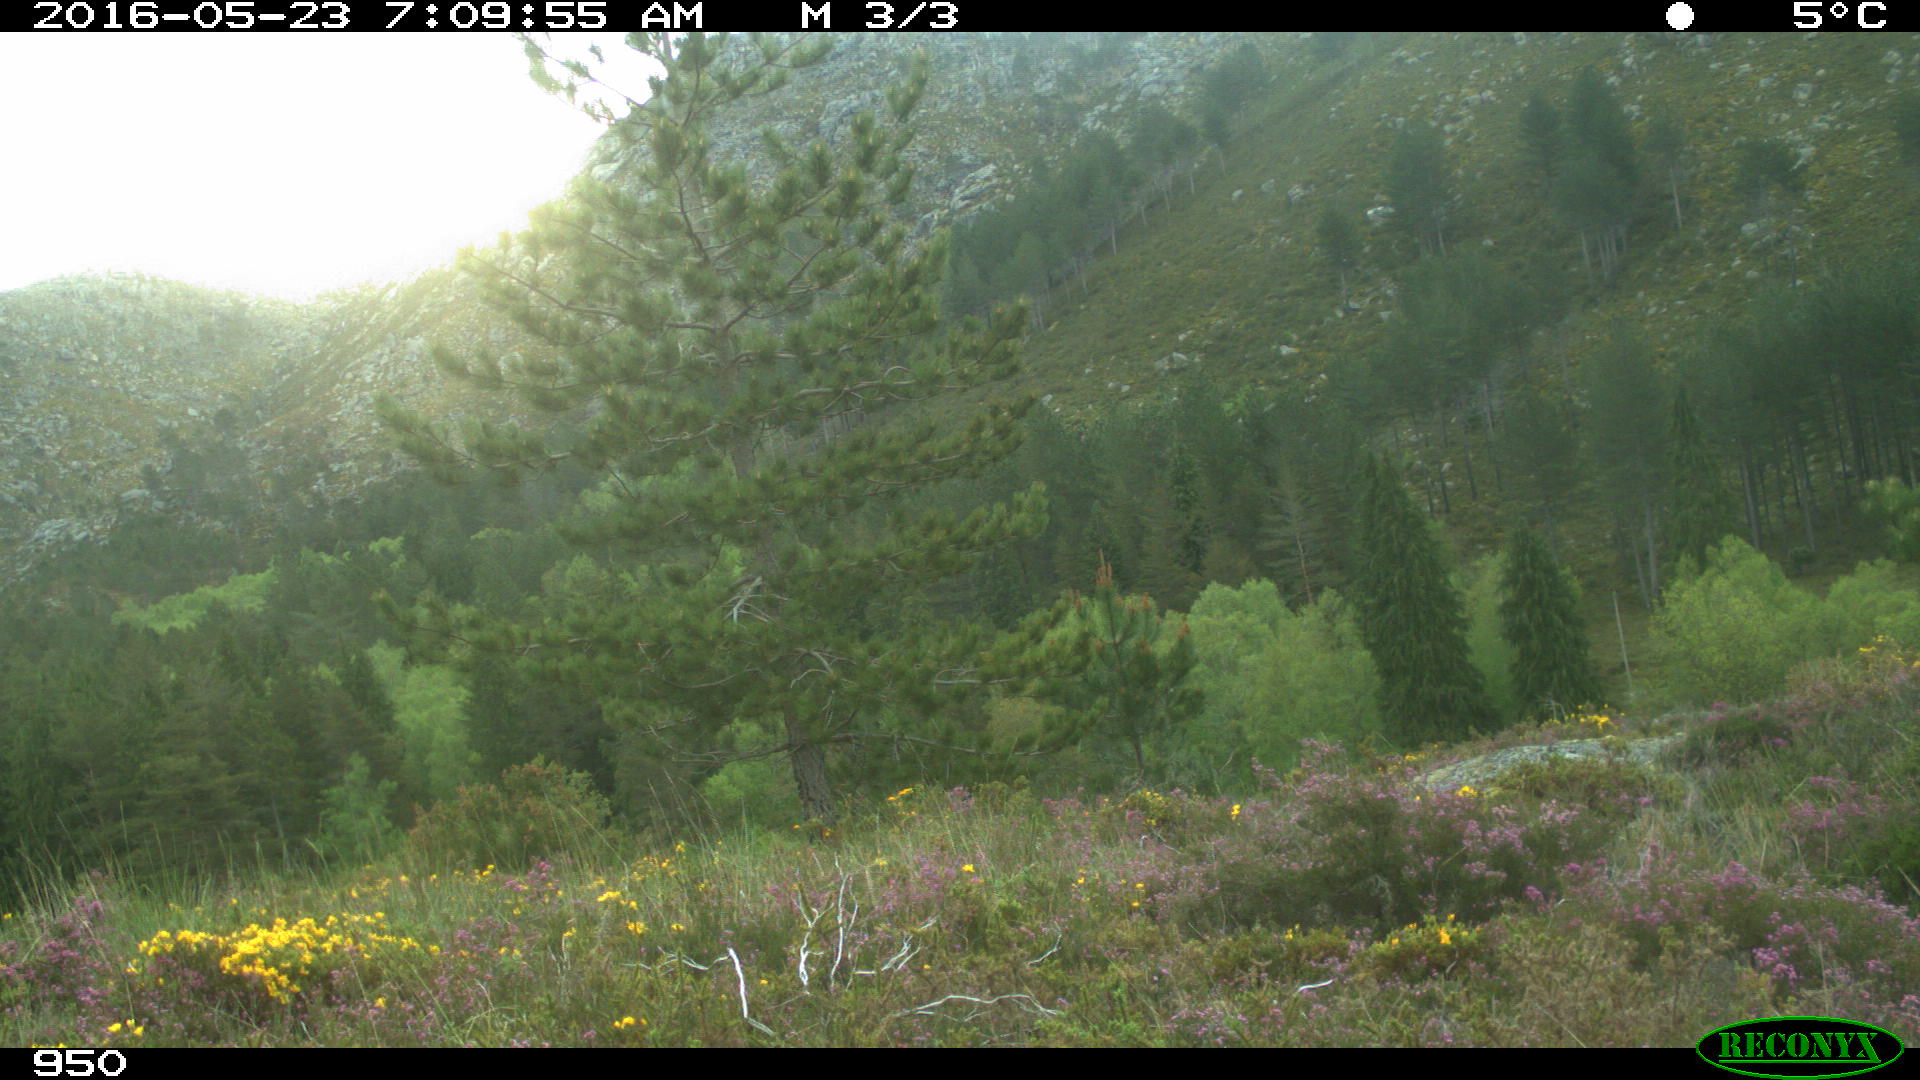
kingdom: Animalia
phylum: Chordata
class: Mammalia
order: Artiodactyla
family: Cervidae
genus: Capreolus
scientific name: Capreolus capreolus
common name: Western roe deer
